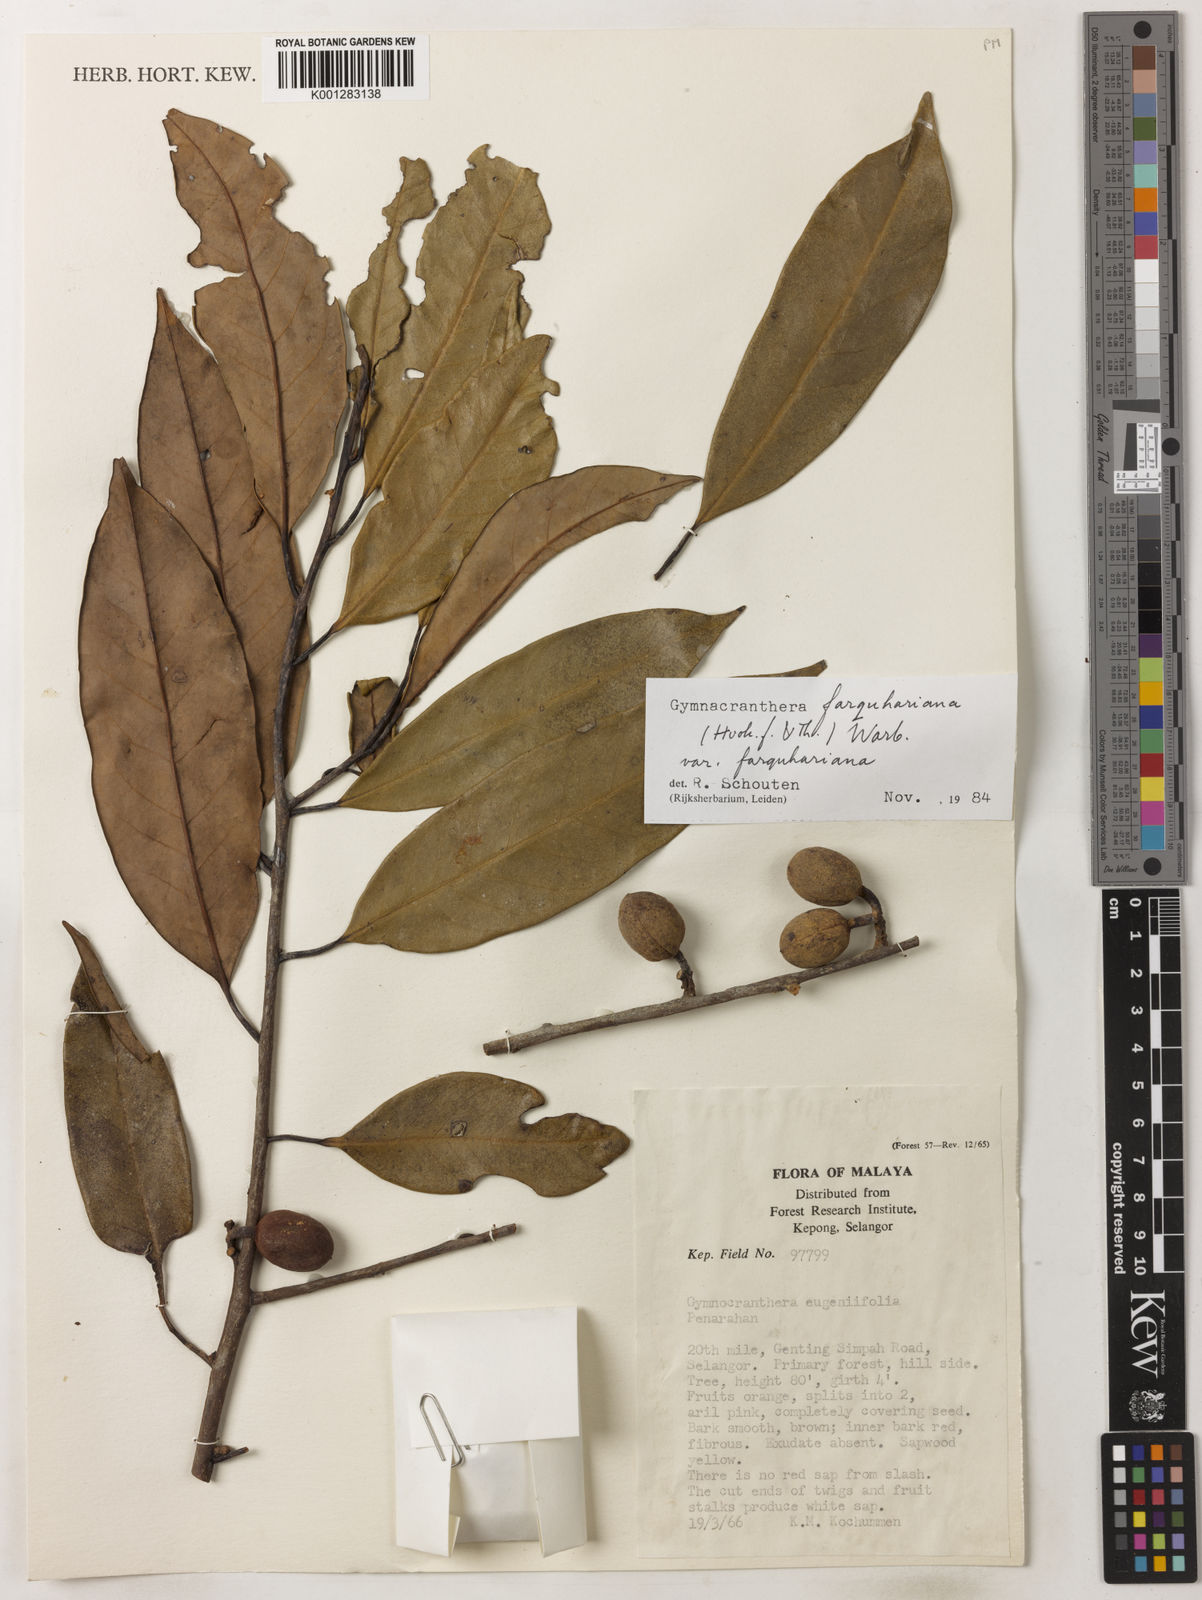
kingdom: Plantae
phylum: Tracheophyta
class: Magnoliopsida
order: Magnoliales
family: Myristicaceae
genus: Gymnacranthera
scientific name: Gymnacranthera farquhariana
